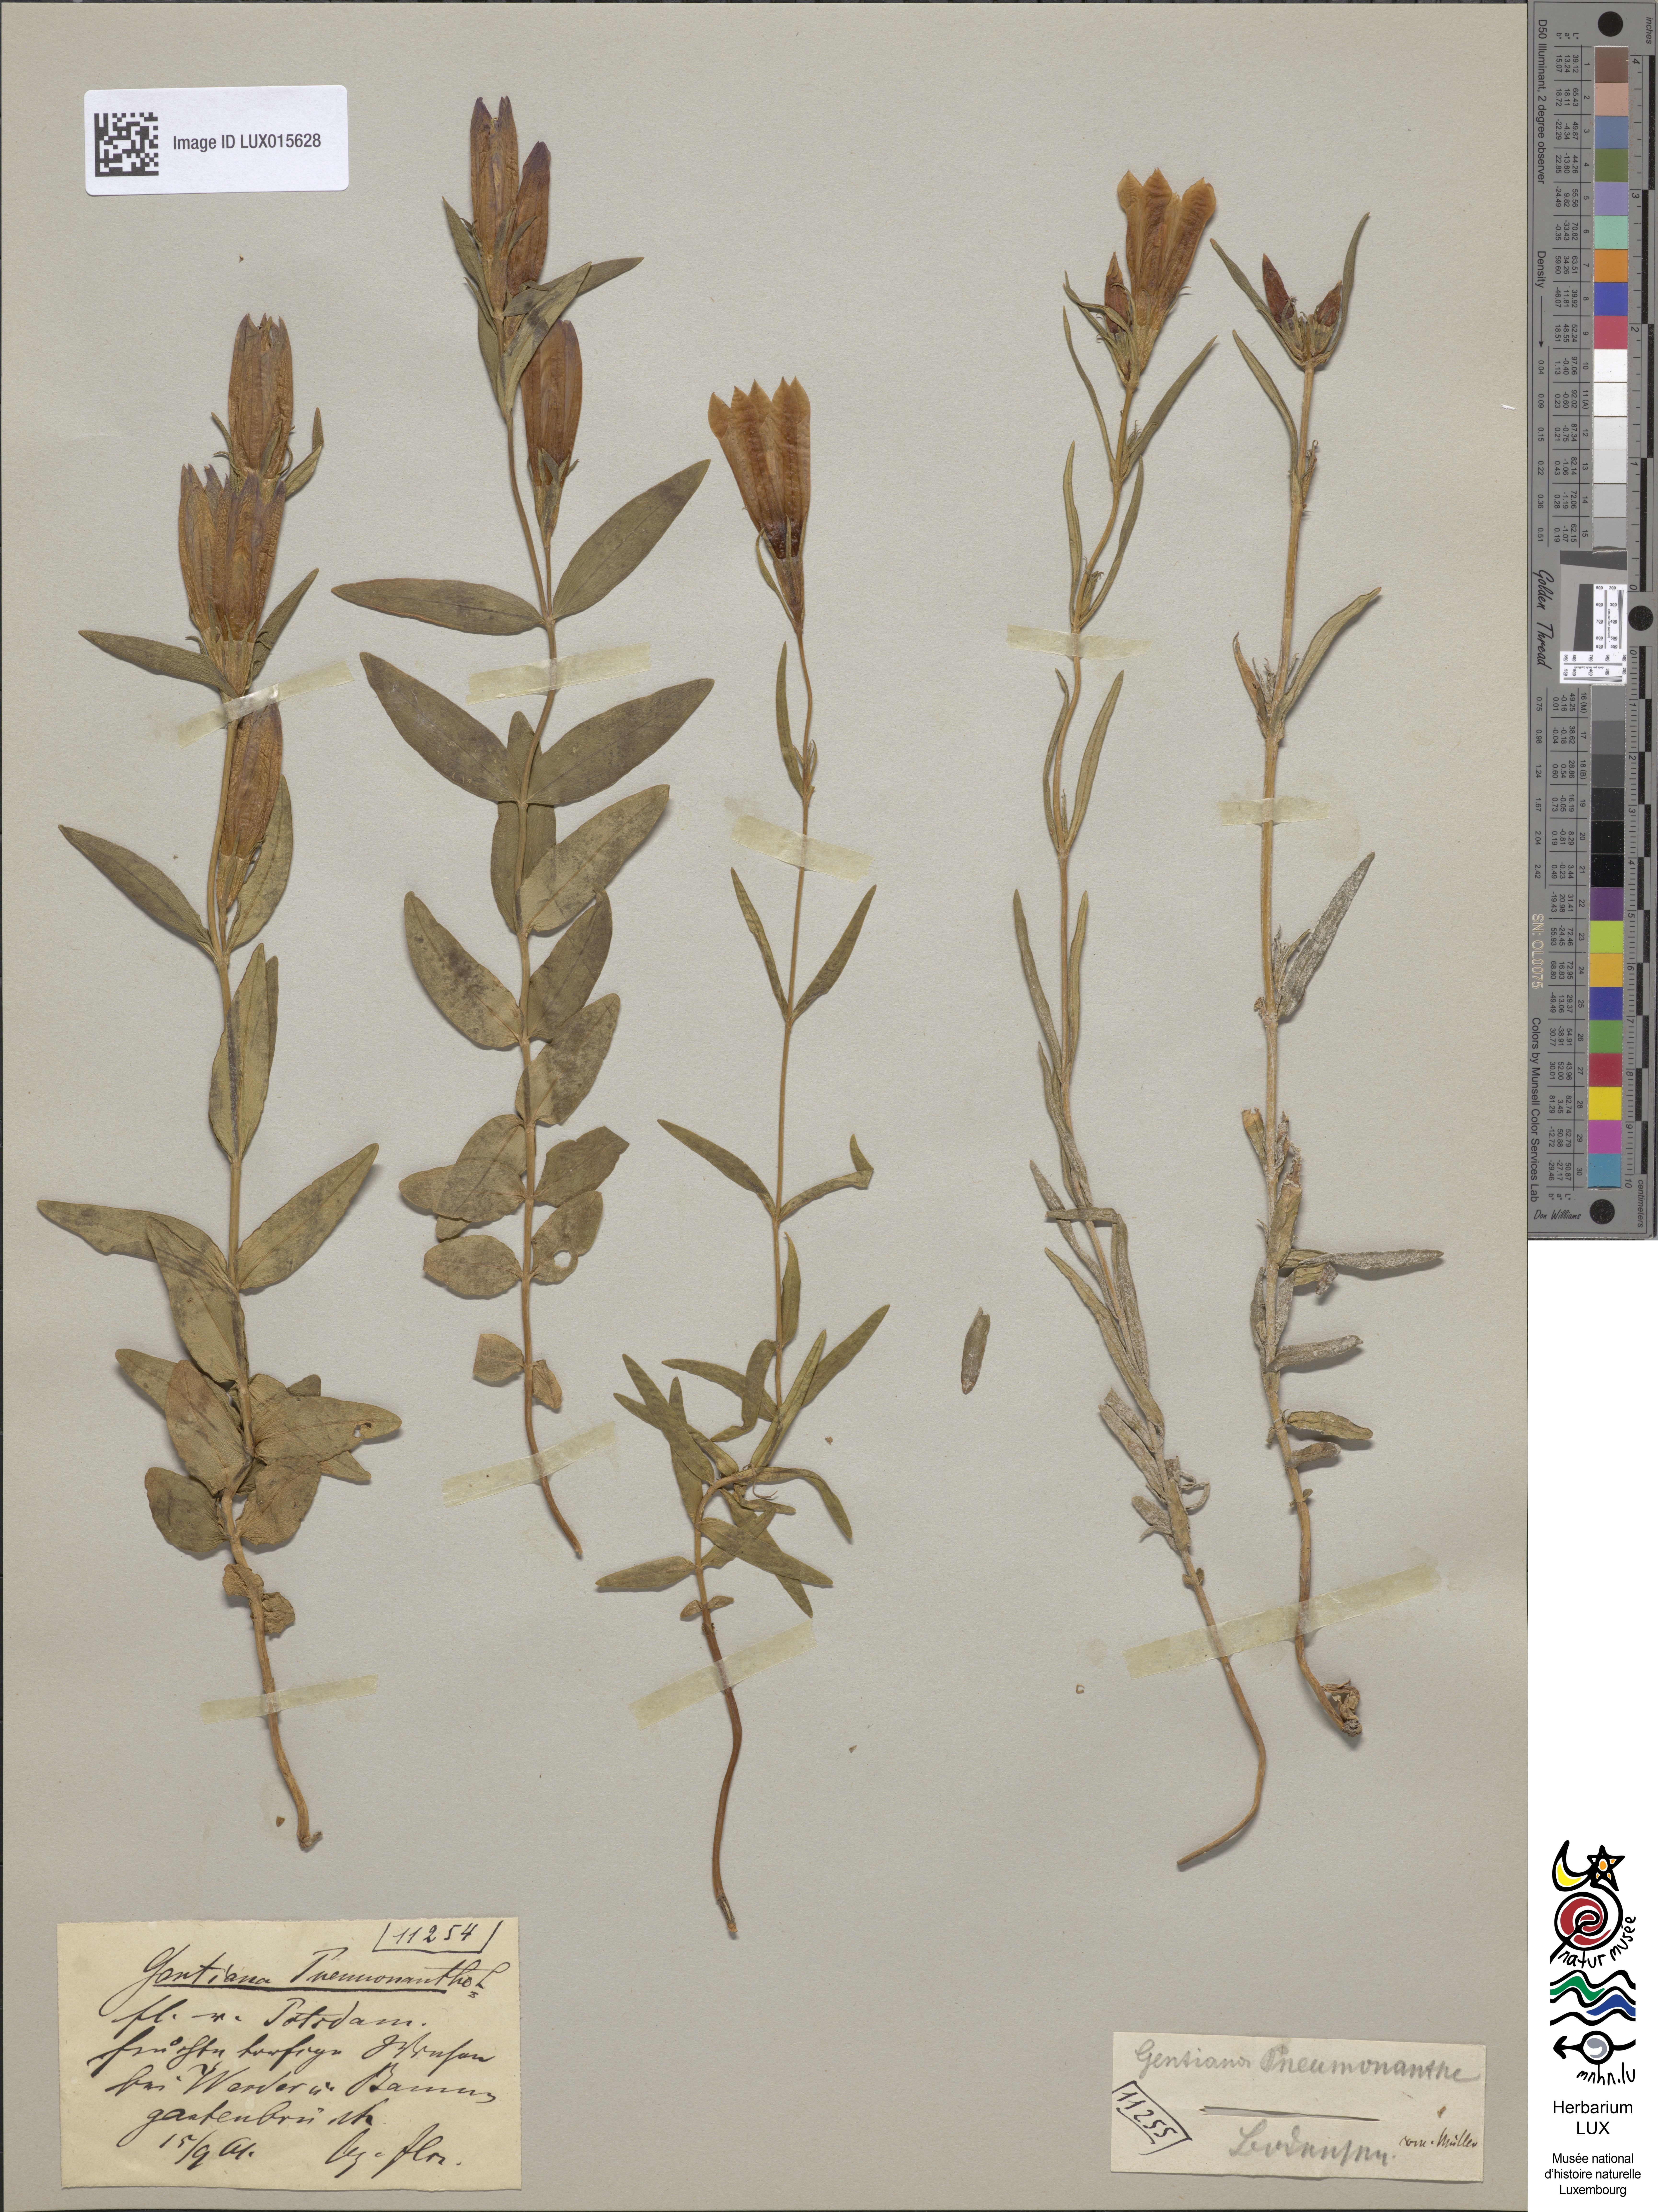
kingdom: Plantae
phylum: Tracheophyta
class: Magnoliopsida
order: Gentianales
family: Gentianaceae
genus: Gentiana
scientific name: Gentiana pneumonanthe
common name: Marsh gentian
